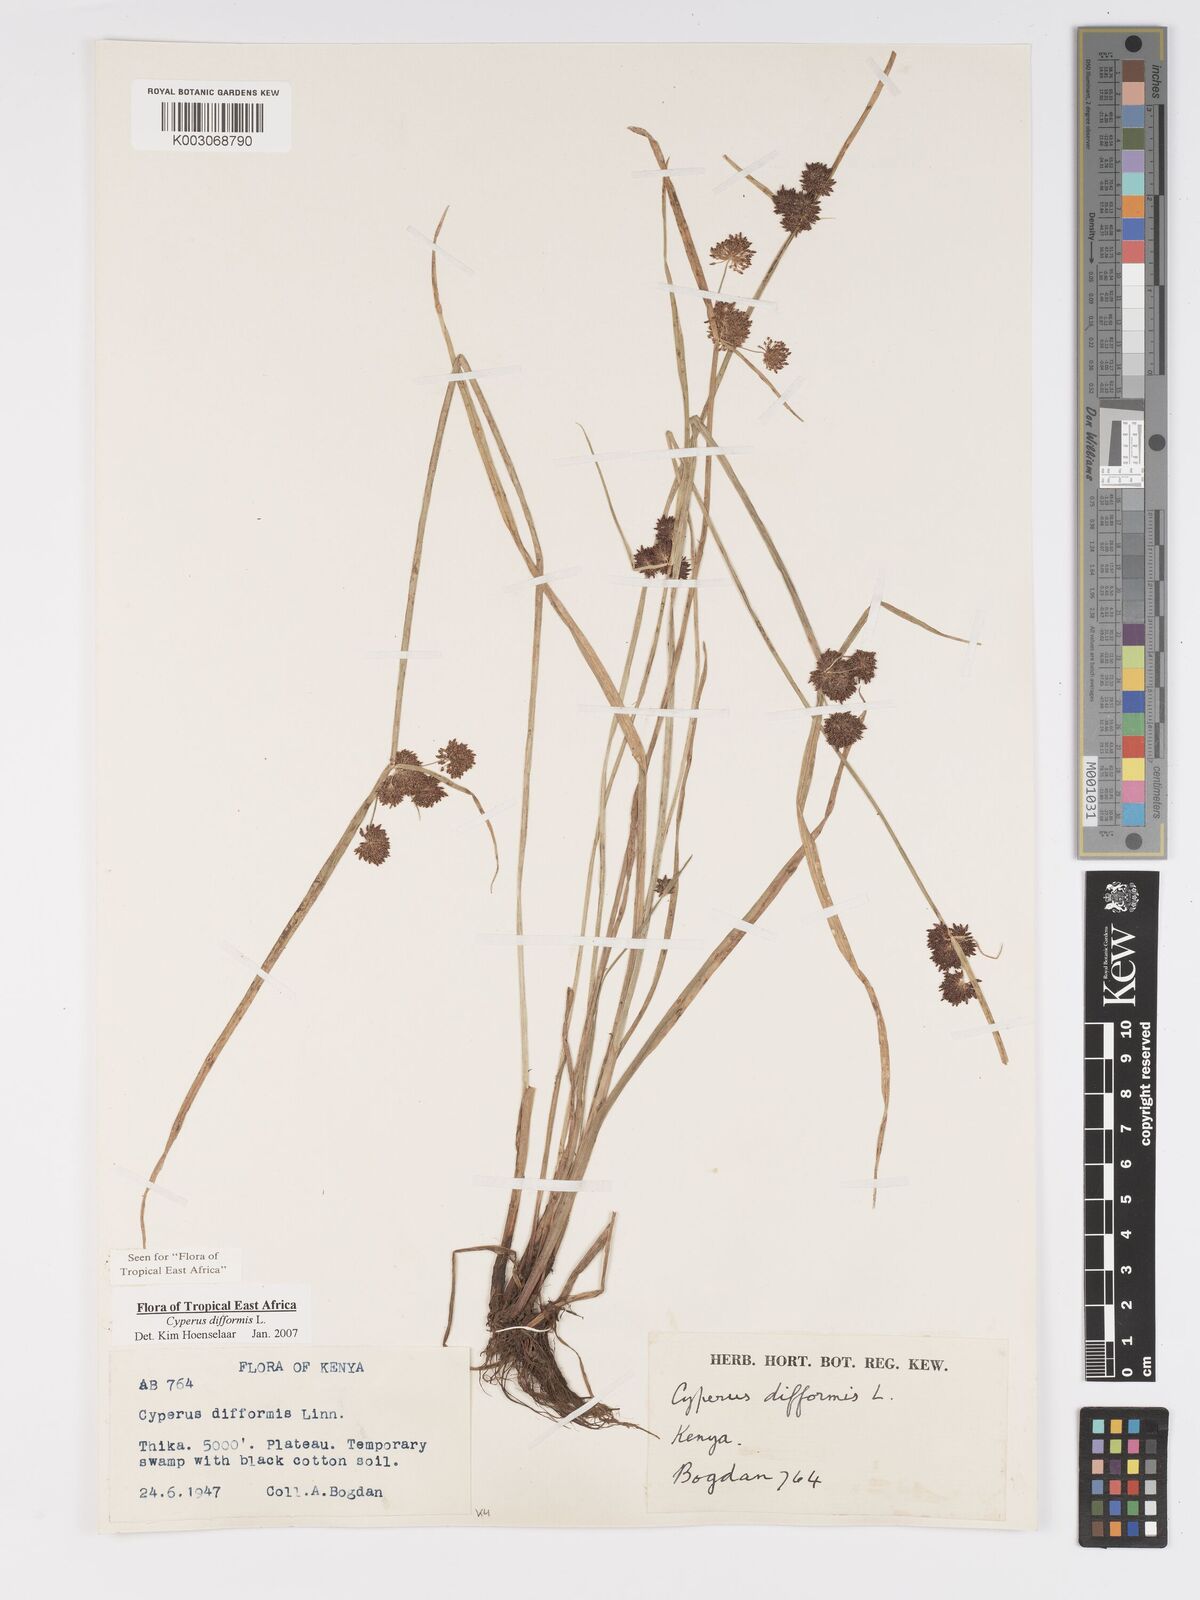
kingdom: Plantae
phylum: Tracheophyta
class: Liliopsida
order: Poales
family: Cyperaceae
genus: Cyperus
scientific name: Cyperus difformis
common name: Variable flatsedge
